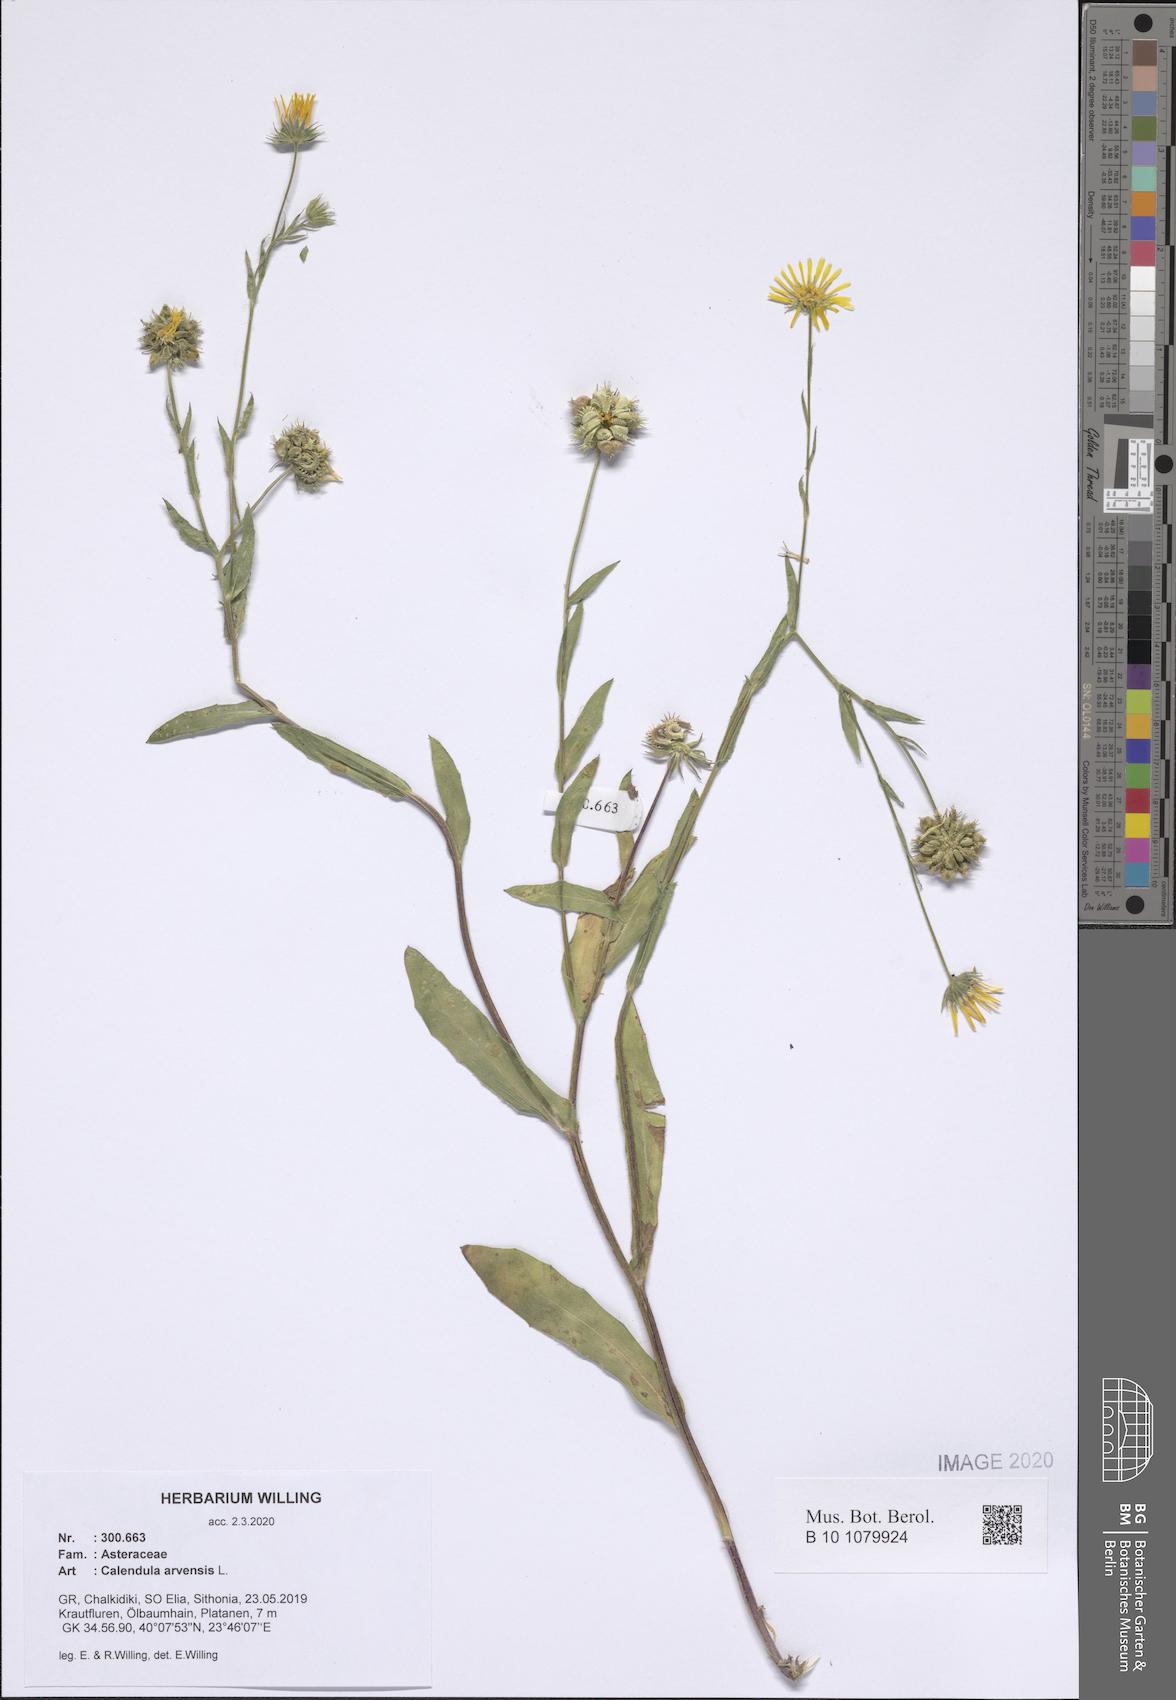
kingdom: Plantae
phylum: Tracheophyta
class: Magnoliopsida
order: Asterales
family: Asteraceae
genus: Calendula
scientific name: Calendula arvensis
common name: Field marigold
